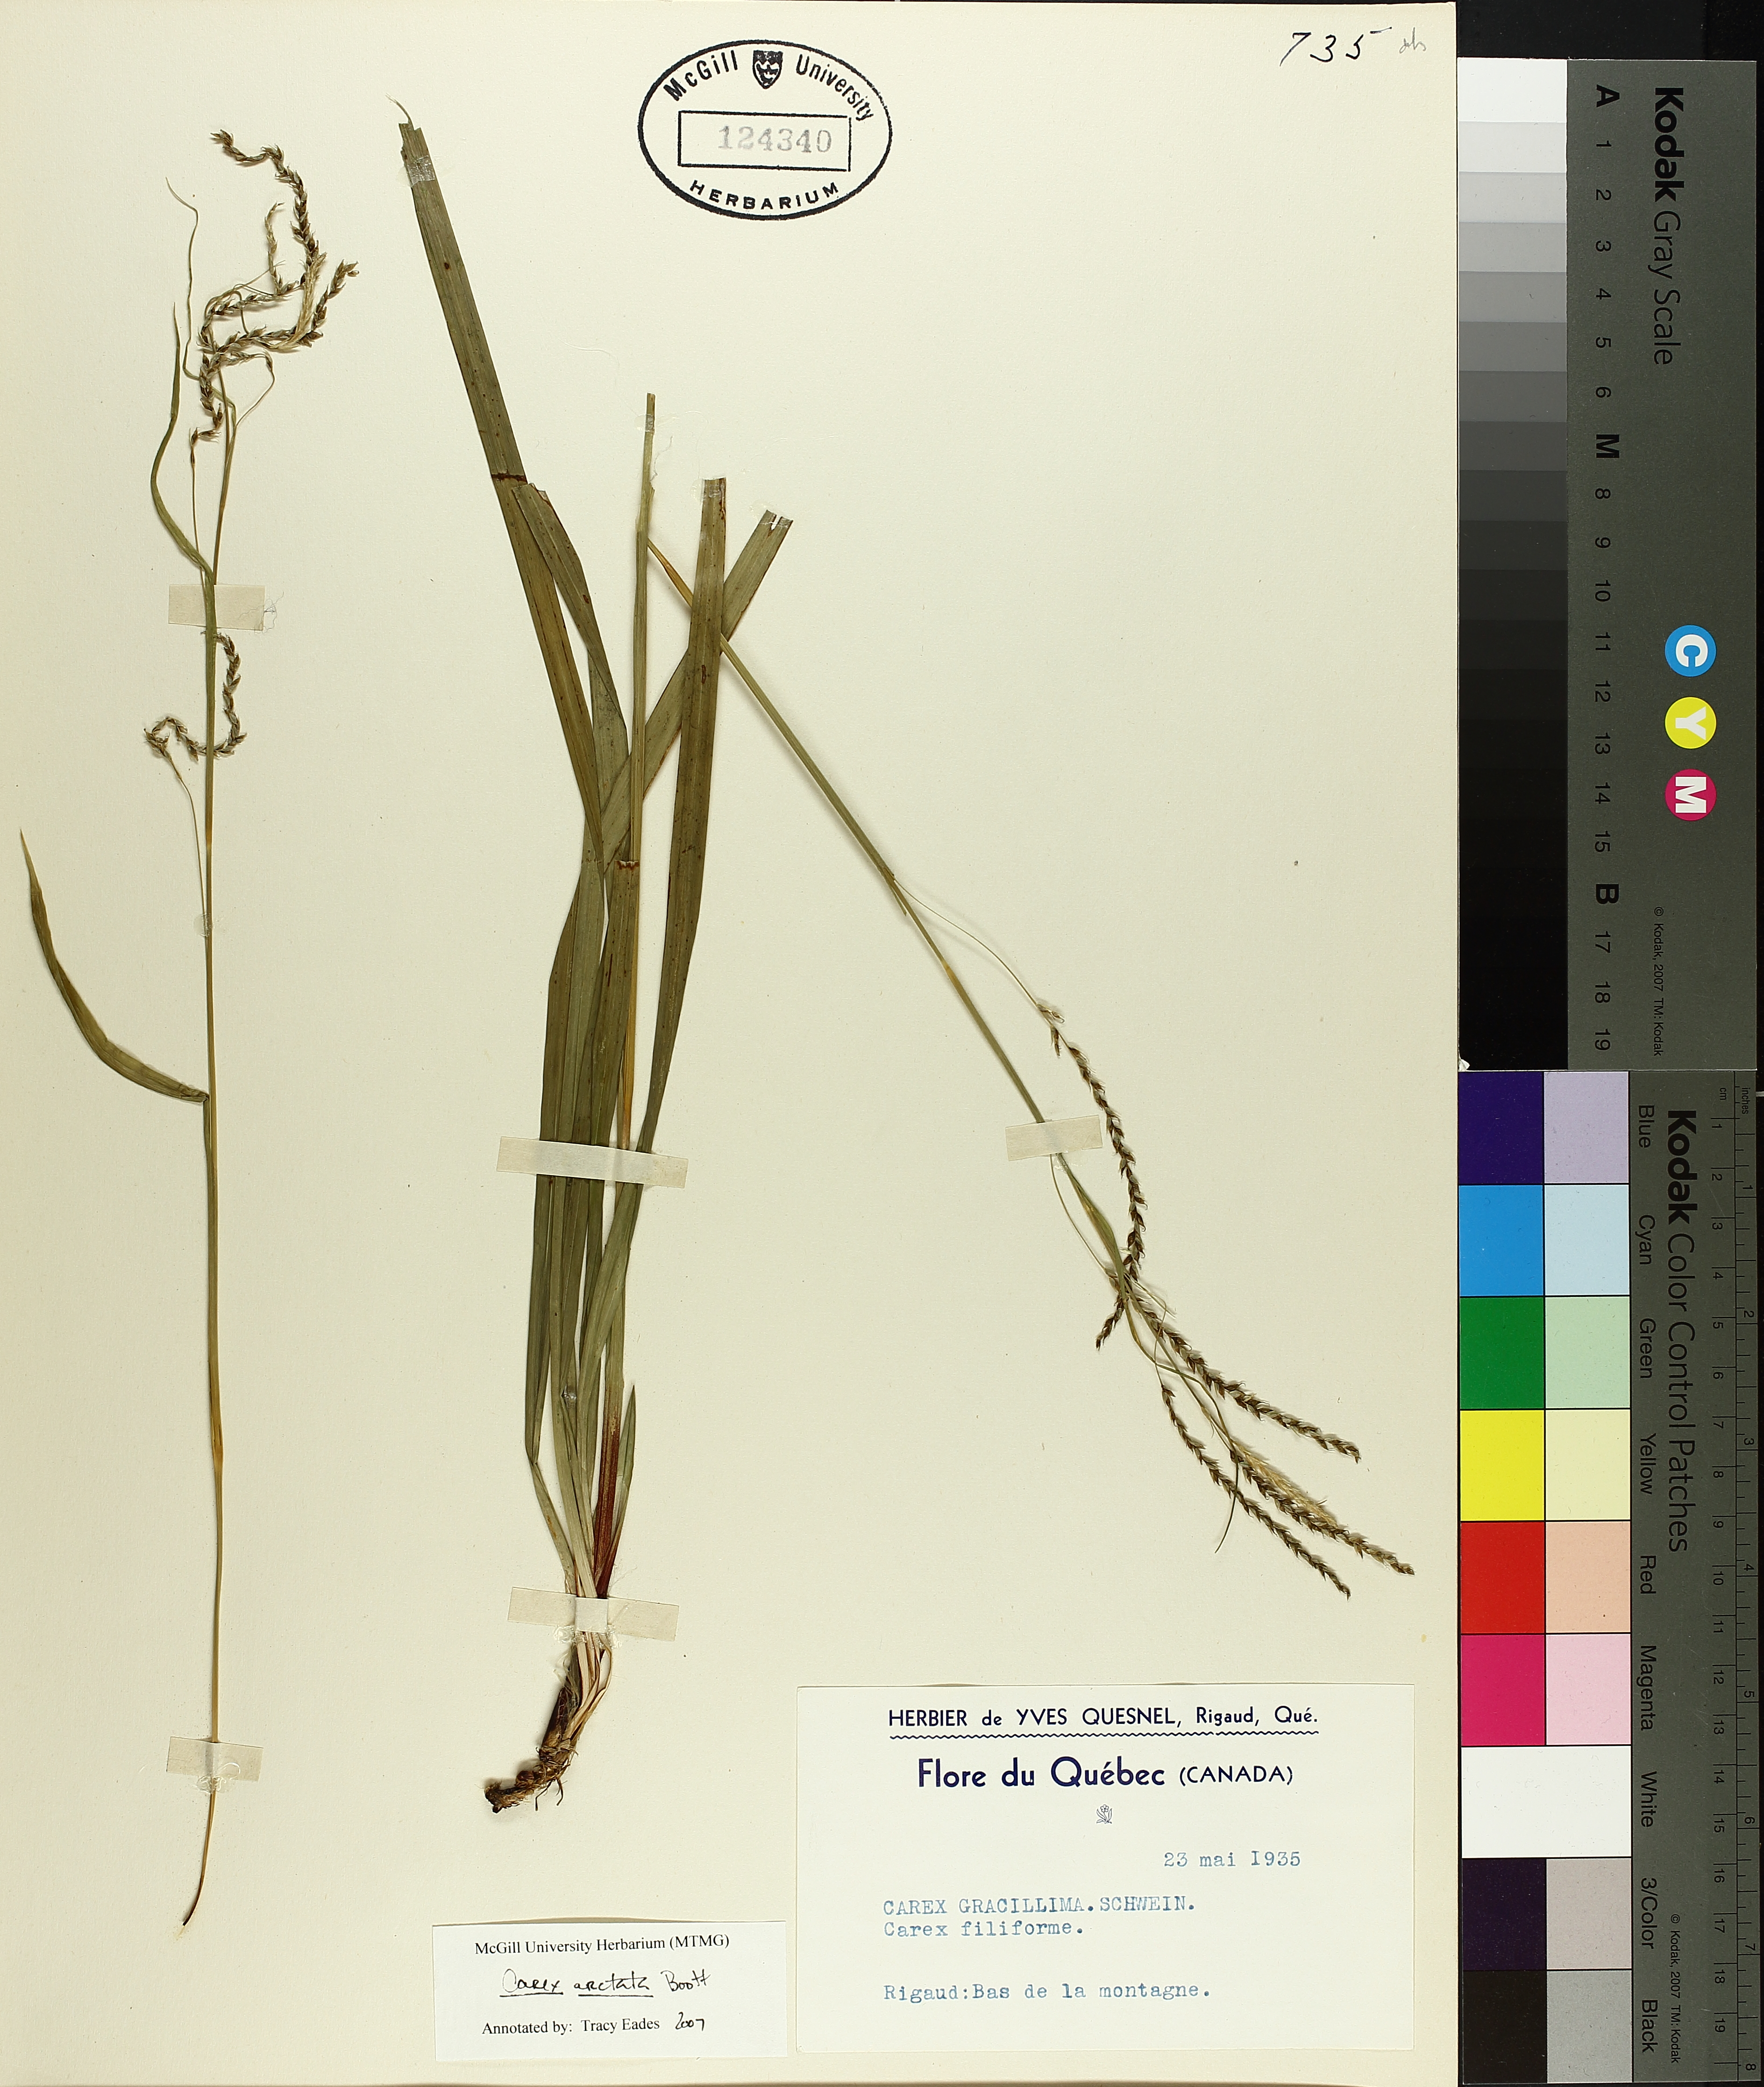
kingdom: Plantae
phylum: Tracheophyta
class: Liliopsida
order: Poales
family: Cyperaceae
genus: Carex
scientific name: Carex arctata
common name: Black sedge
